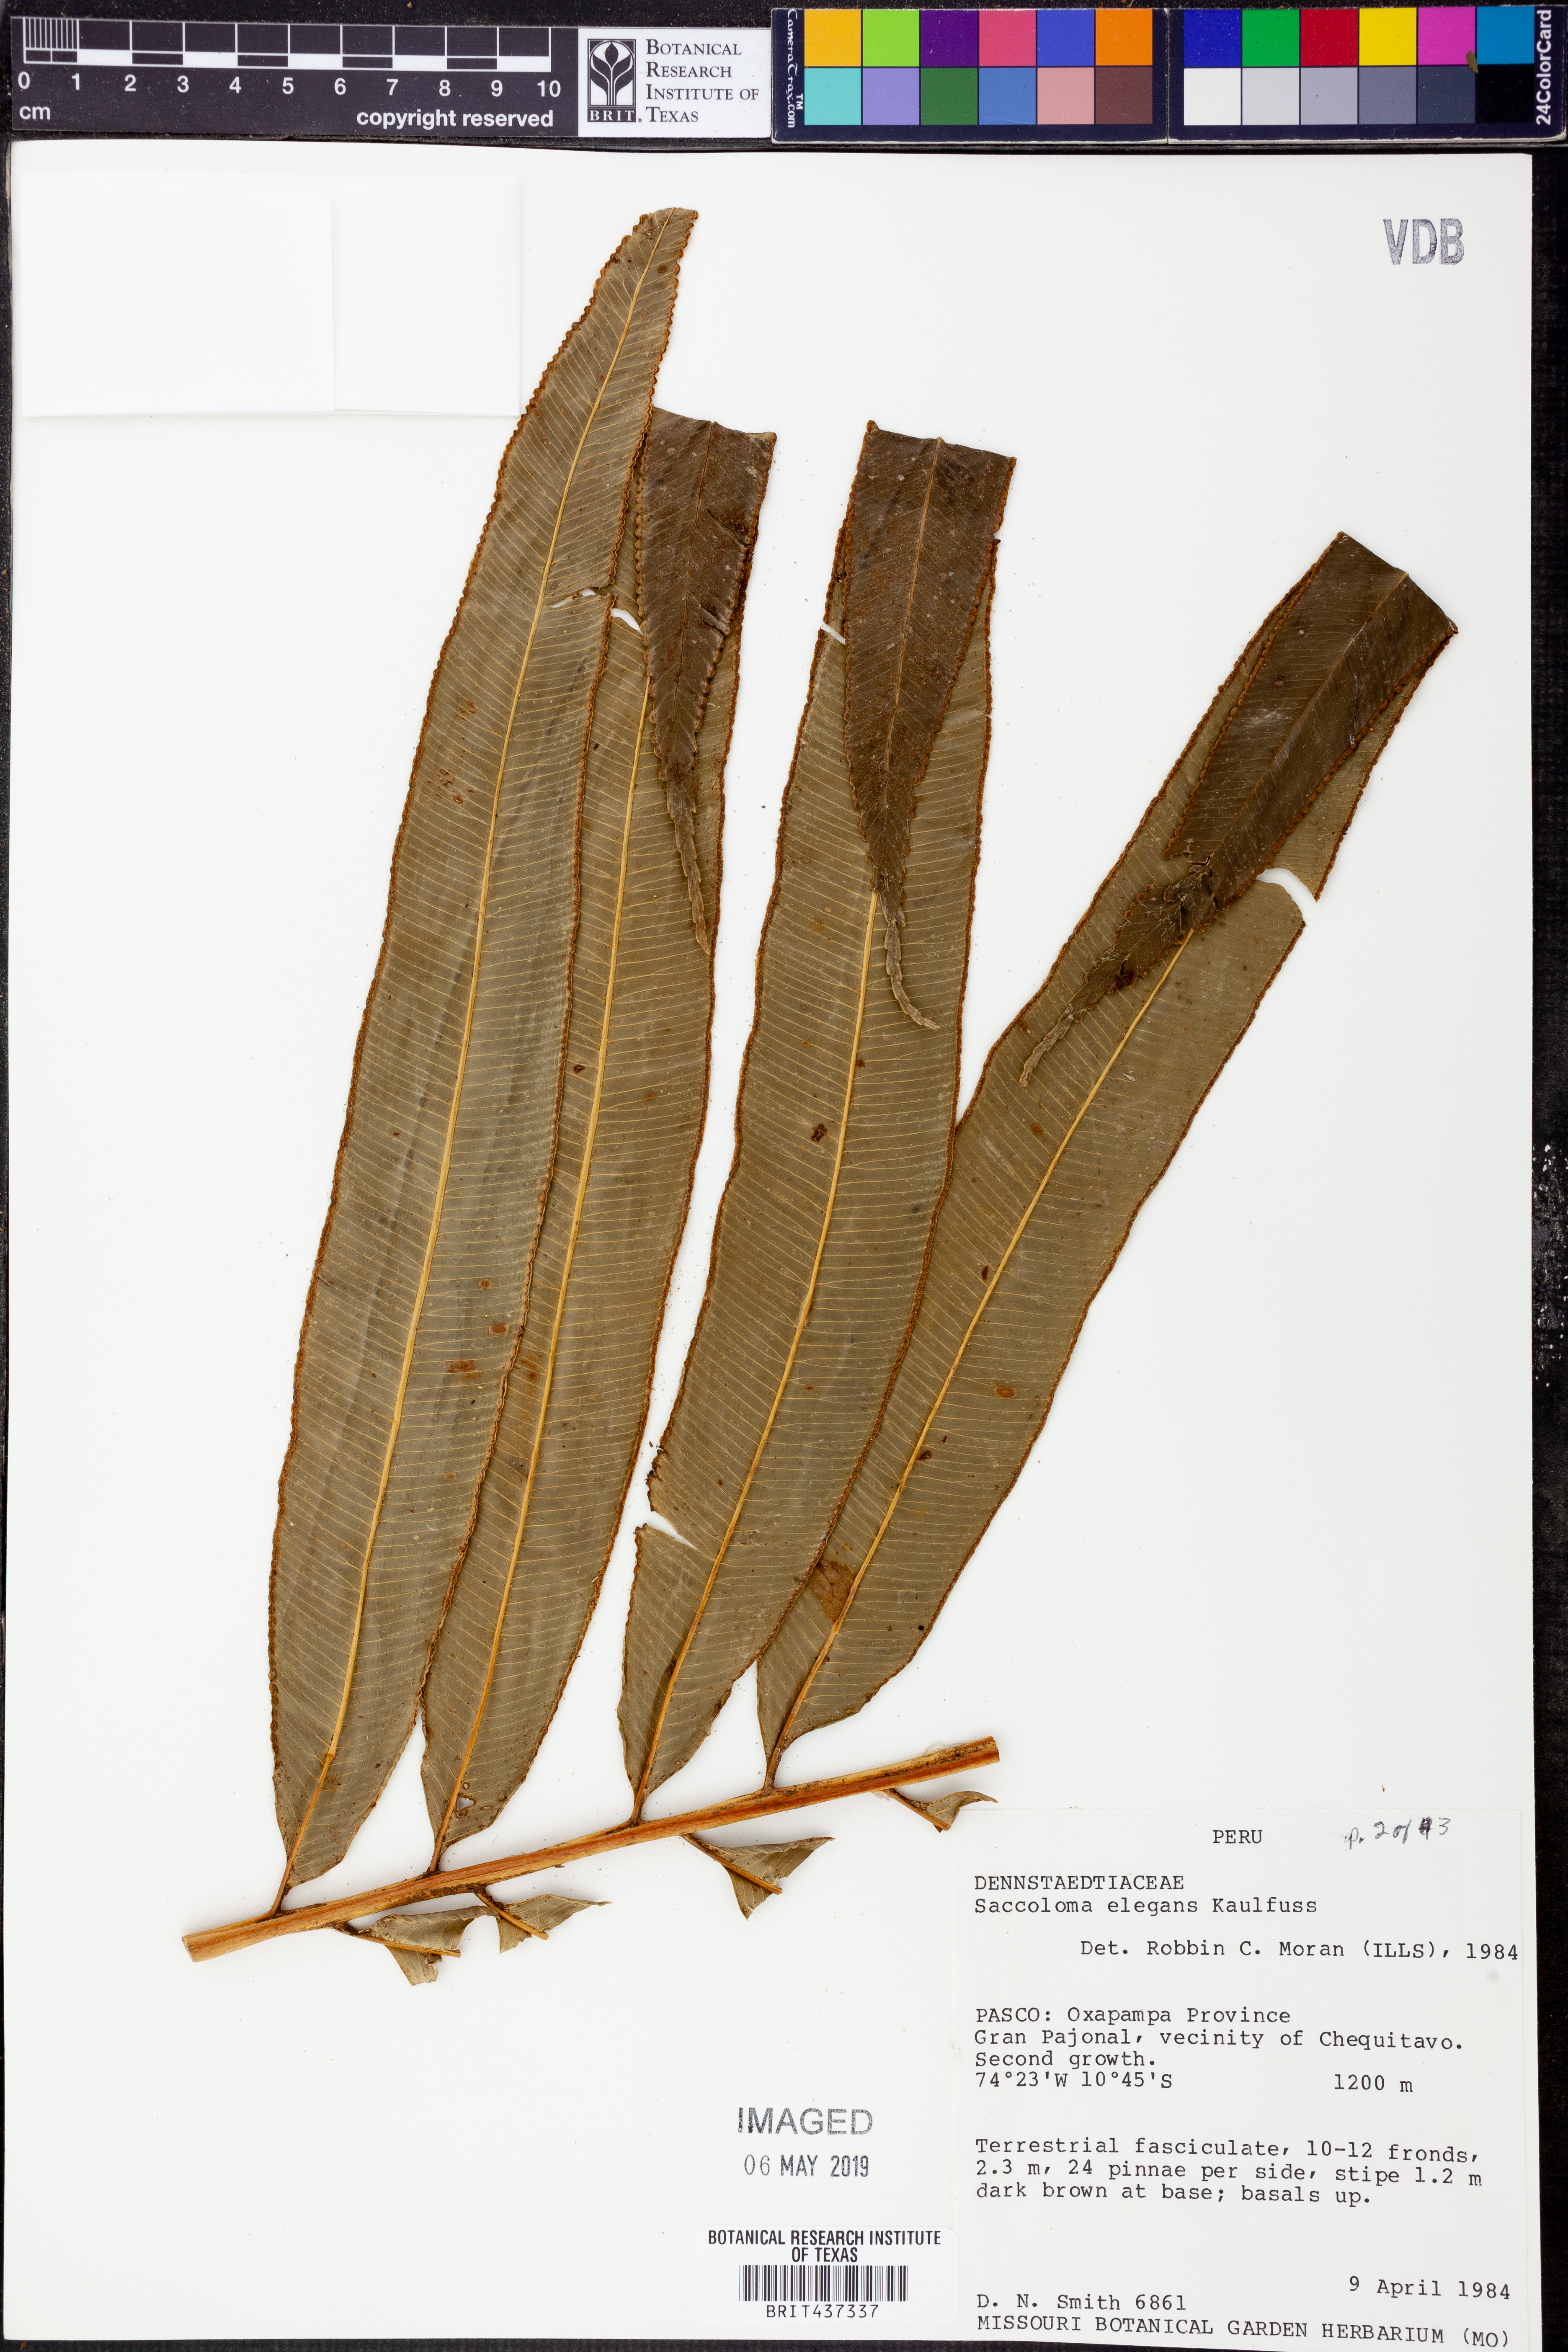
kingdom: Plantae
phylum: Tracheophyta
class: Polypodiopsida
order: Polypodiales
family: Saccolomataceae
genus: Saccoloma
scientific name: Saccoloma elegans
